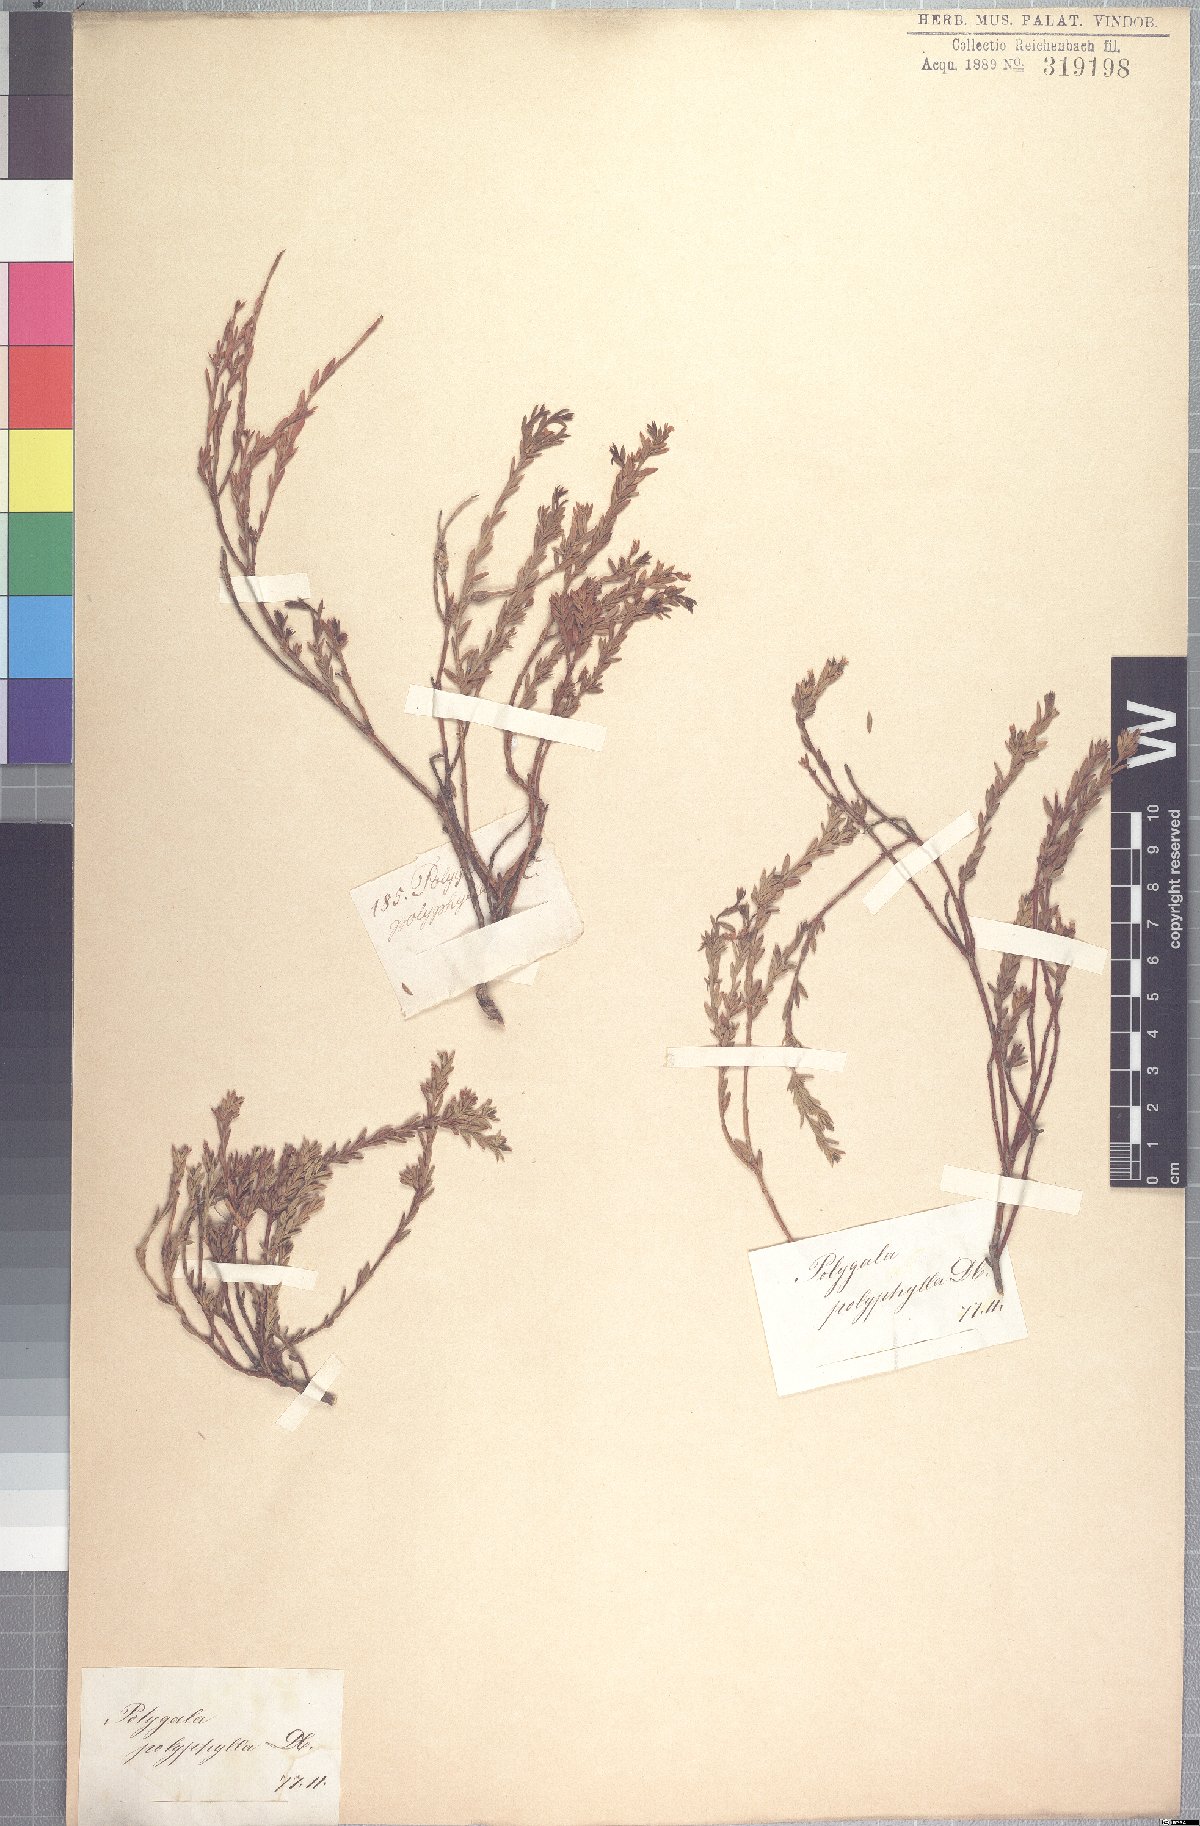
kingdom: Plantae
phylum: Tracheophyta
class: Magnoliopsida
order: Fabales
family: Polygalaceae
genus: Muraltia
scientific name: Muraltia crassifolia
